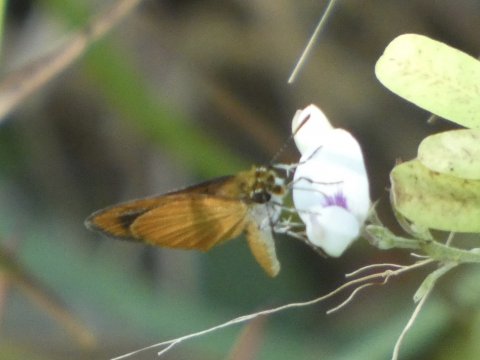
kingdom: Animalia
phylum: Arthropoda
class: Insecta
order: Lepidoptera
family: Hesperiidae
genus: Atrytone
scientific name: Atrytone delaware
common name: Delaware Skipper
